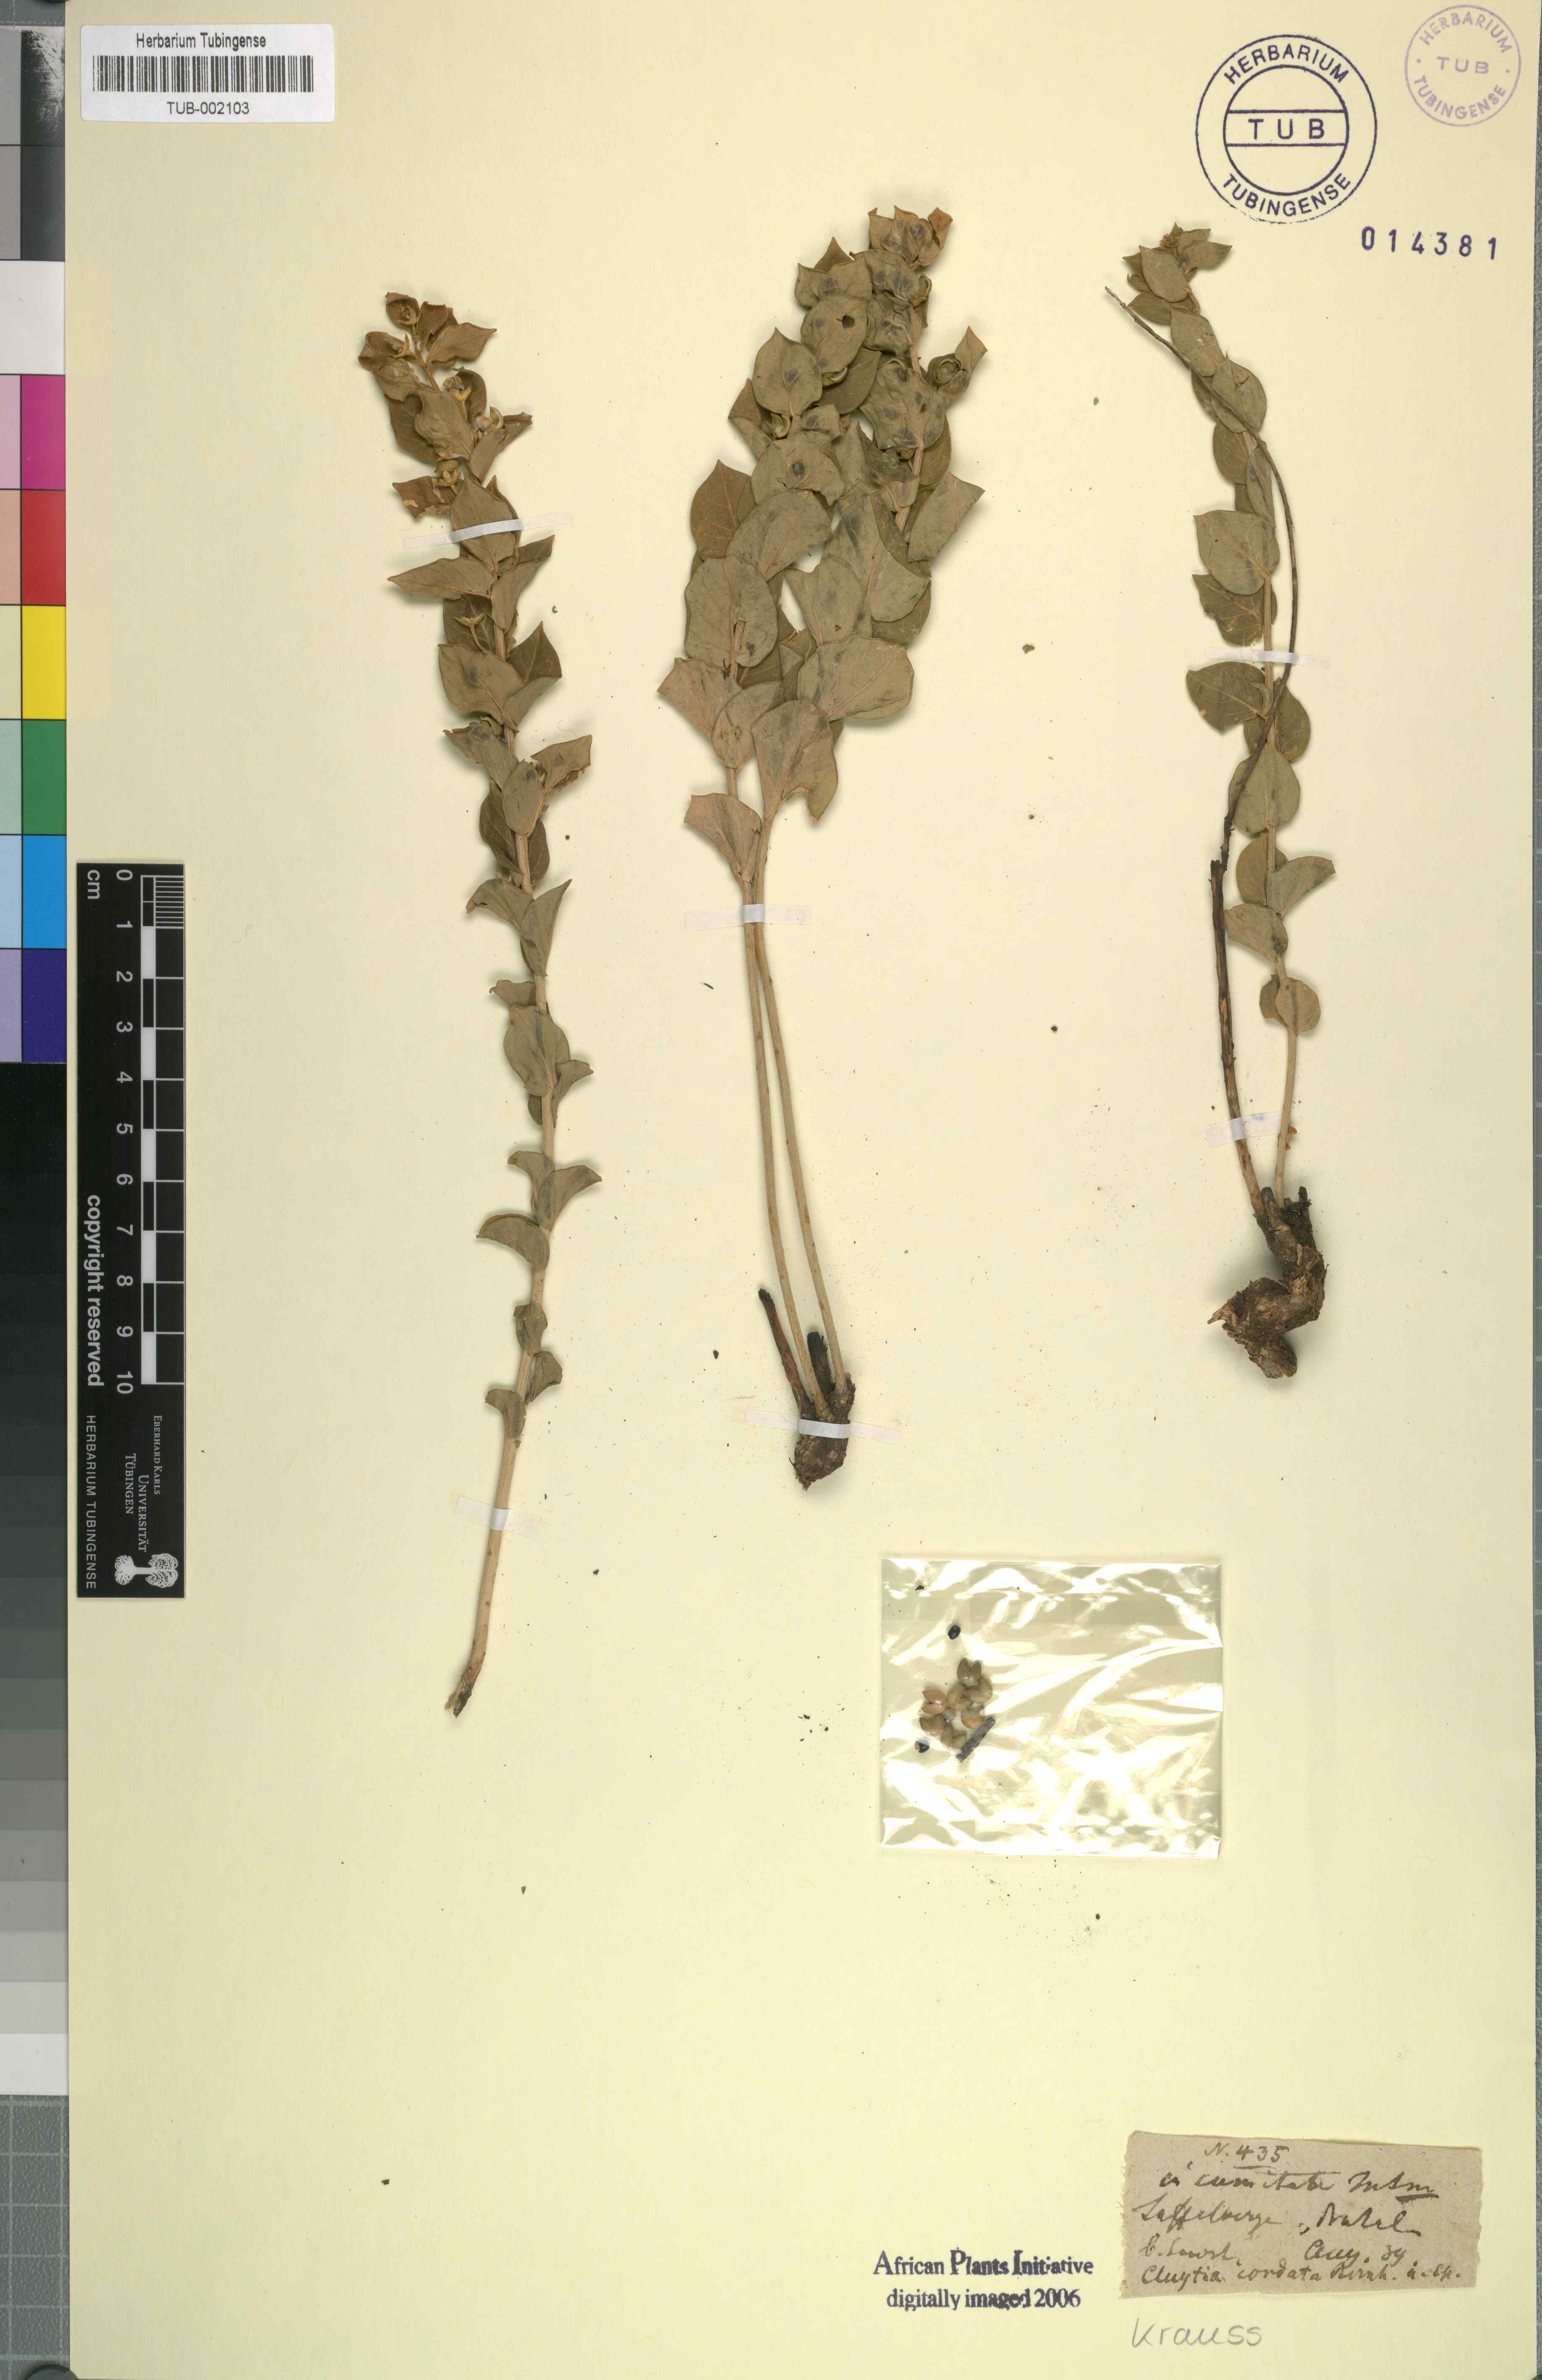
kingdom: Plantae
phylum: Tracheophyta
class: Magnoliopsida
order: Malpighiales
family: Peraceae
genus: Clutia
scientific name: Clutia cordata
